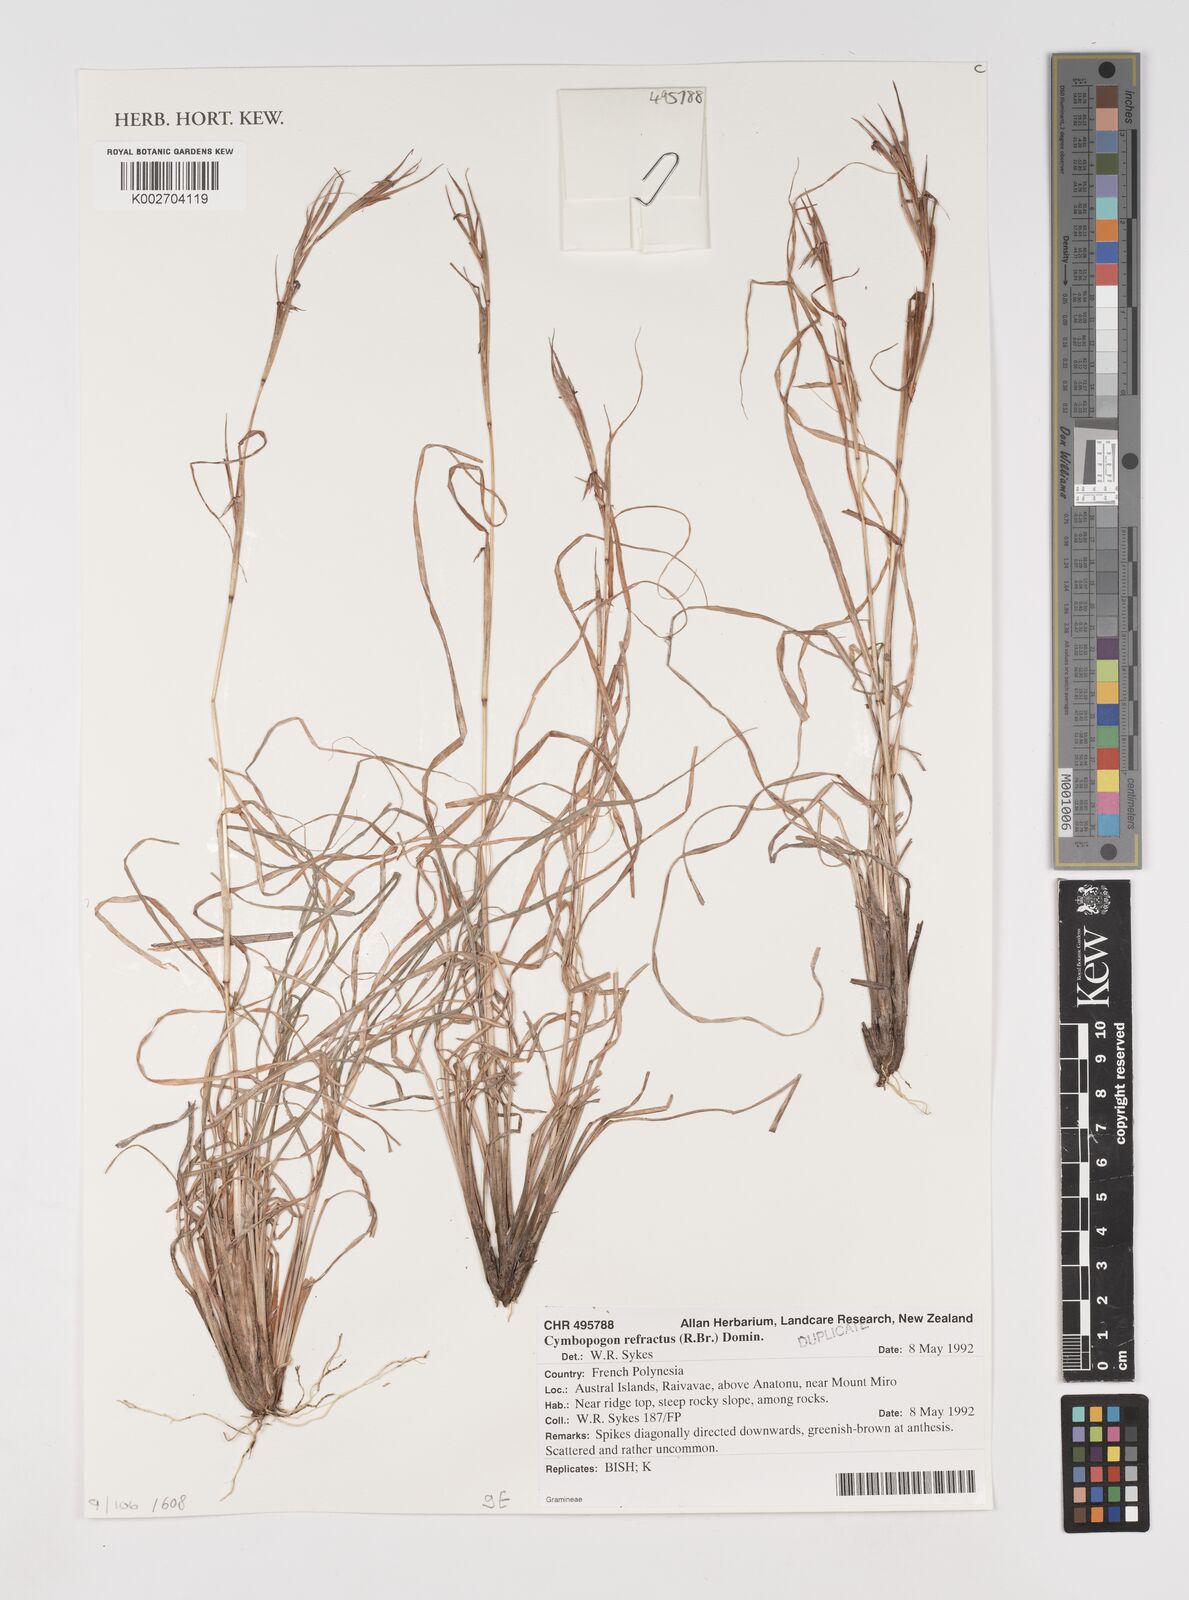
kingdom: Plantae
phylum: Tracheophyta
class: Liliopsida
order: Poales
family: Poaceae
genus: Cymbopogon
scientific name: Cymbopogon refractus
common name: Barbwire grass
